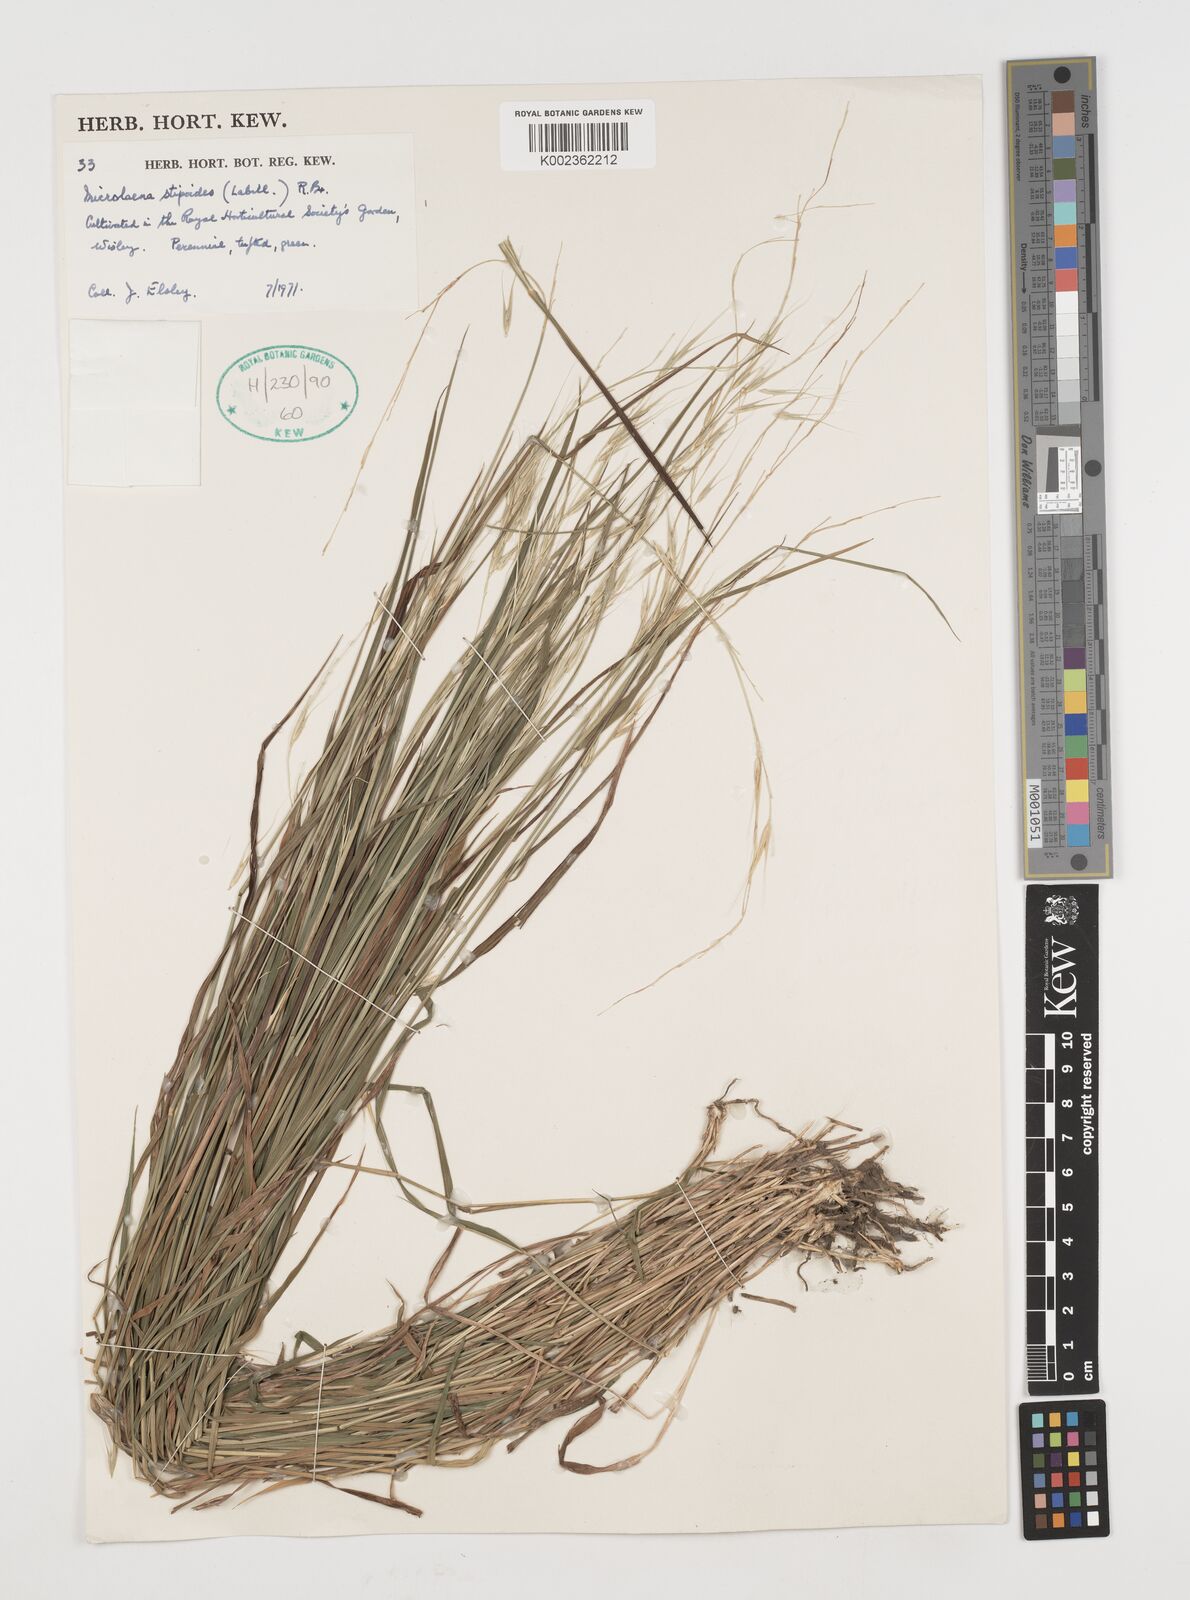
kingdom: Plantae
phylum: Tracheophyta
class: Liliopsida
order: Poales
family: Poaceae
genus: Microlaena
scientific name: Microlaena stipoides
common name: Meadow ricegrass
